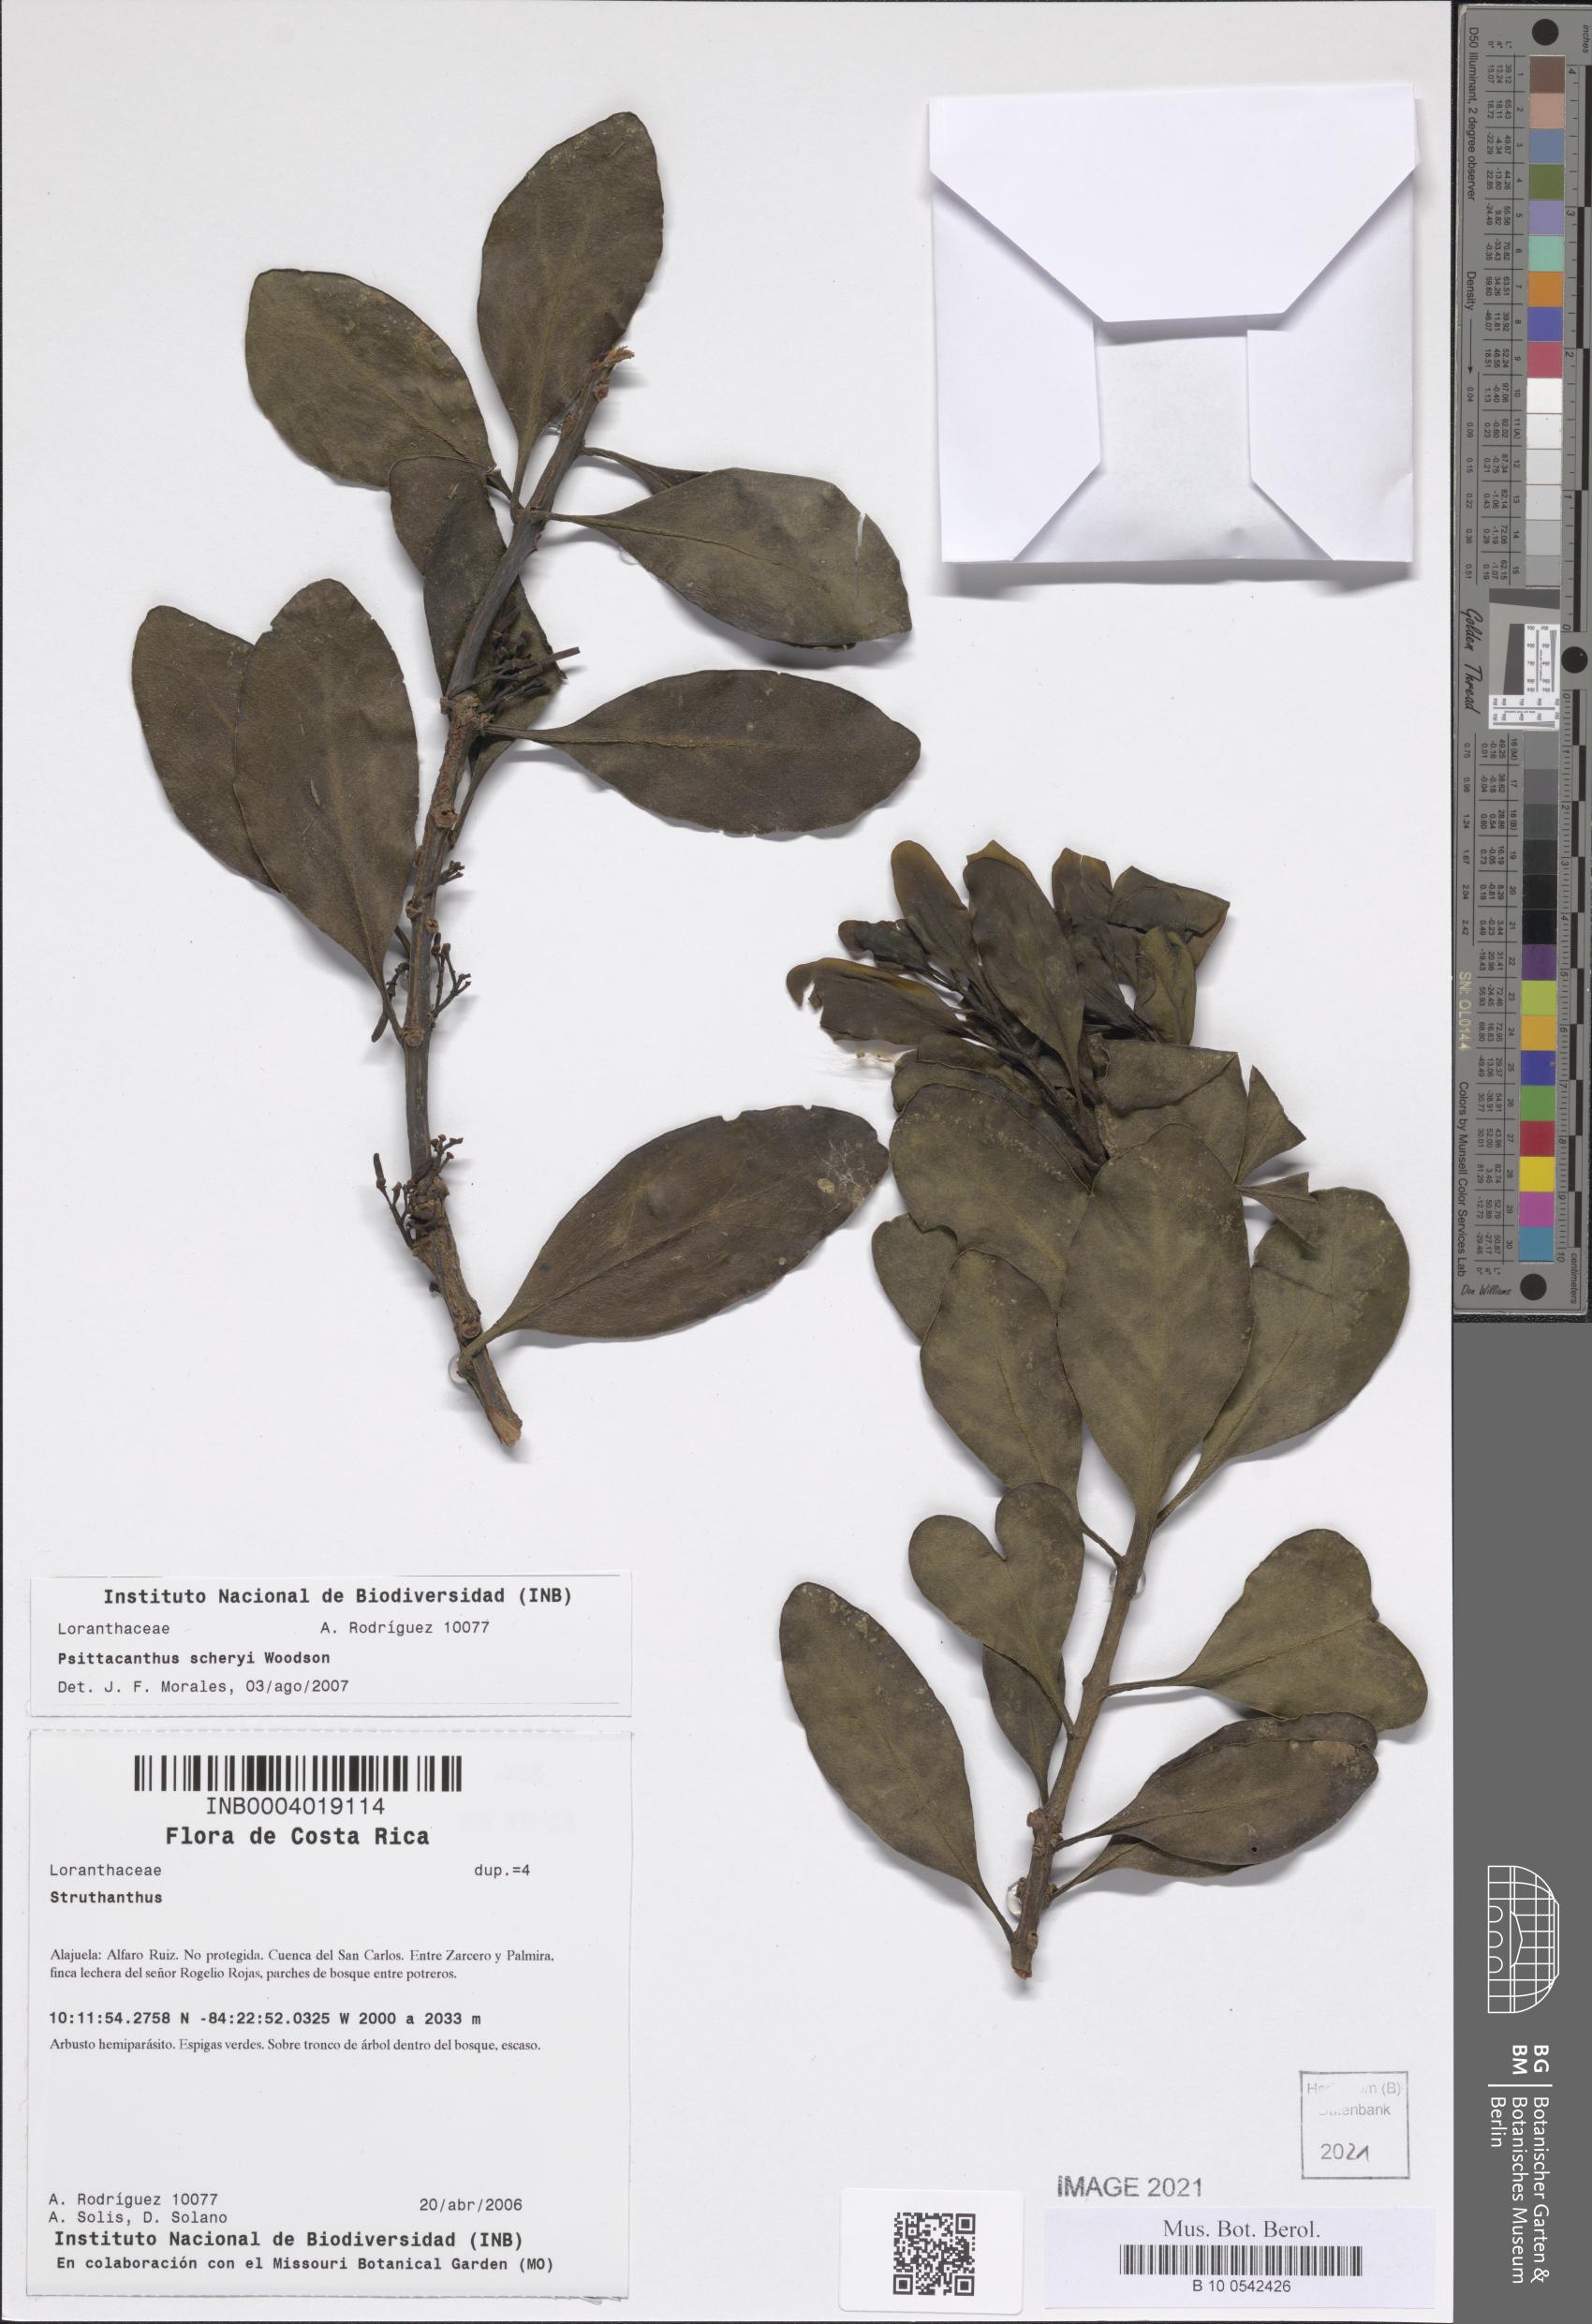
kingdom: Plantae
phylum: Tracheophyta
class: Magnoliopsida
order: Santalales
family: Loranthaceae
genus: Psittacanthus
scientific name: Psittacanthus ramiflorus
